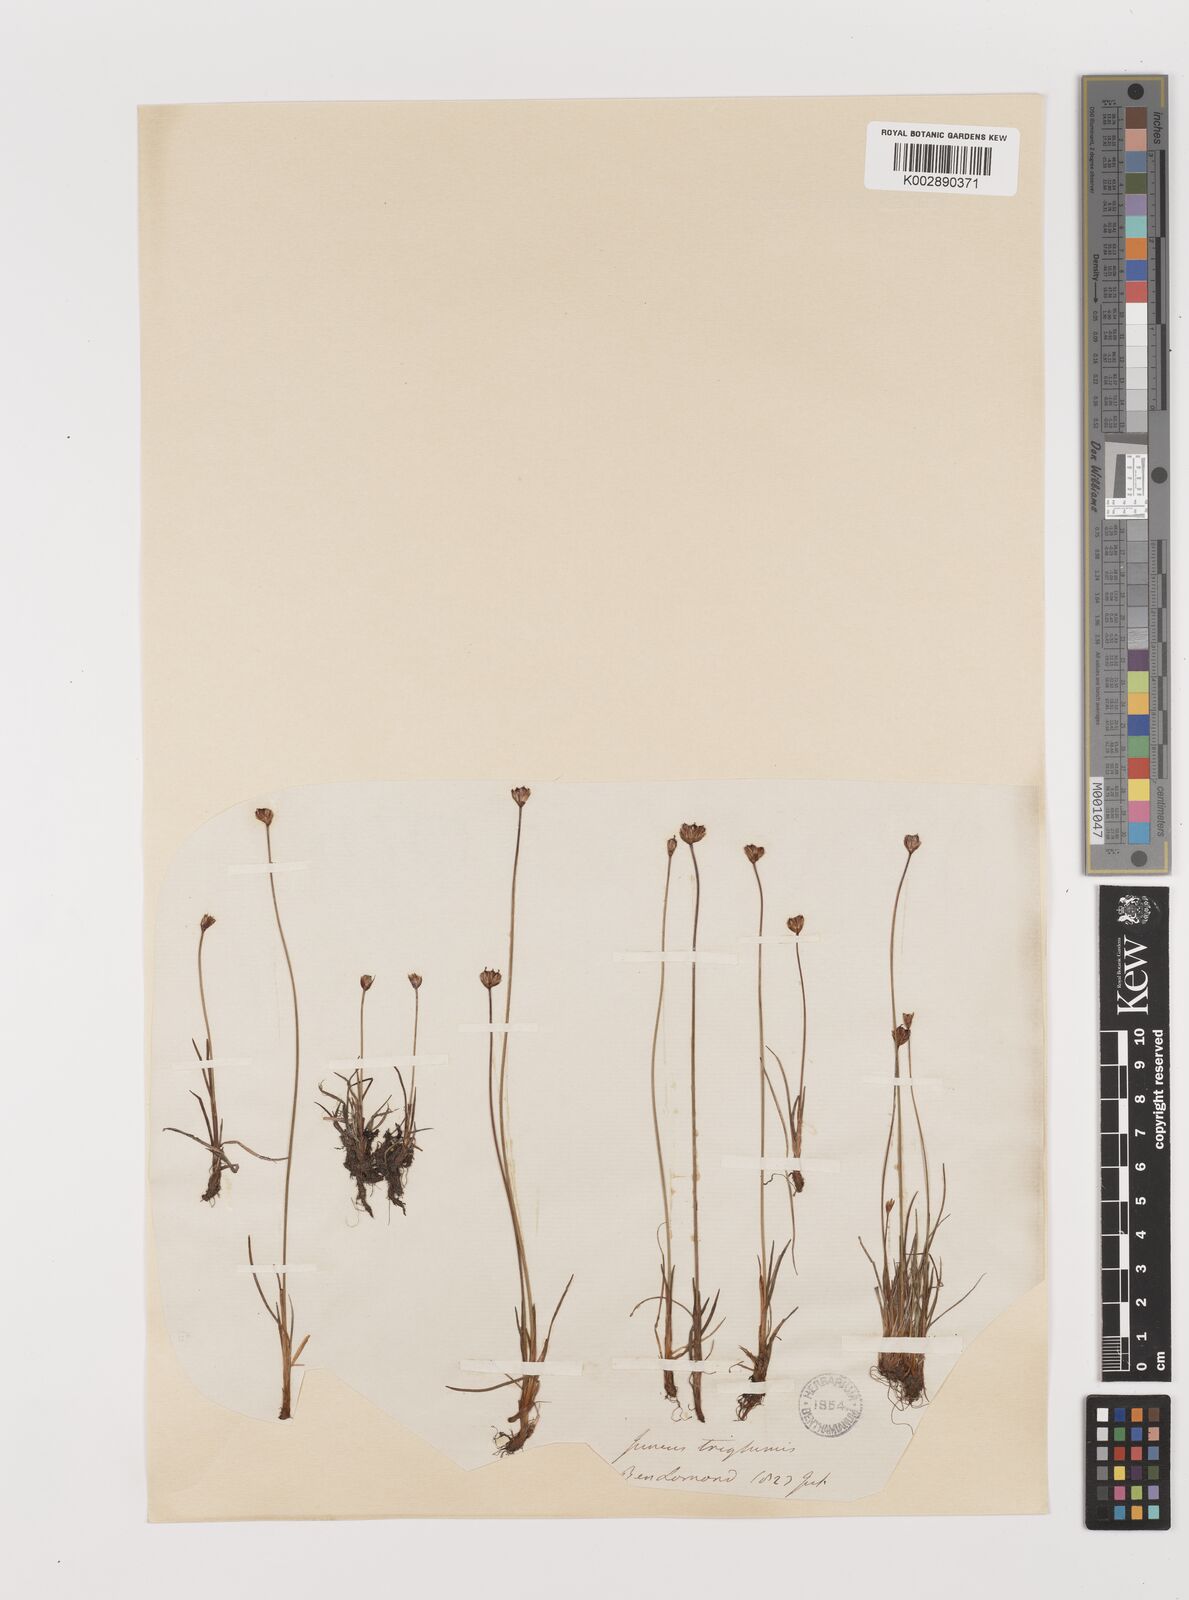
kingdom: Plantae
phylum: Tracheophyta
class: Liliopsida
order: Poales
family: Juncaceae
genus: Juncus
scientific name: Juncus triglumis
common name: Three-flowered rush
